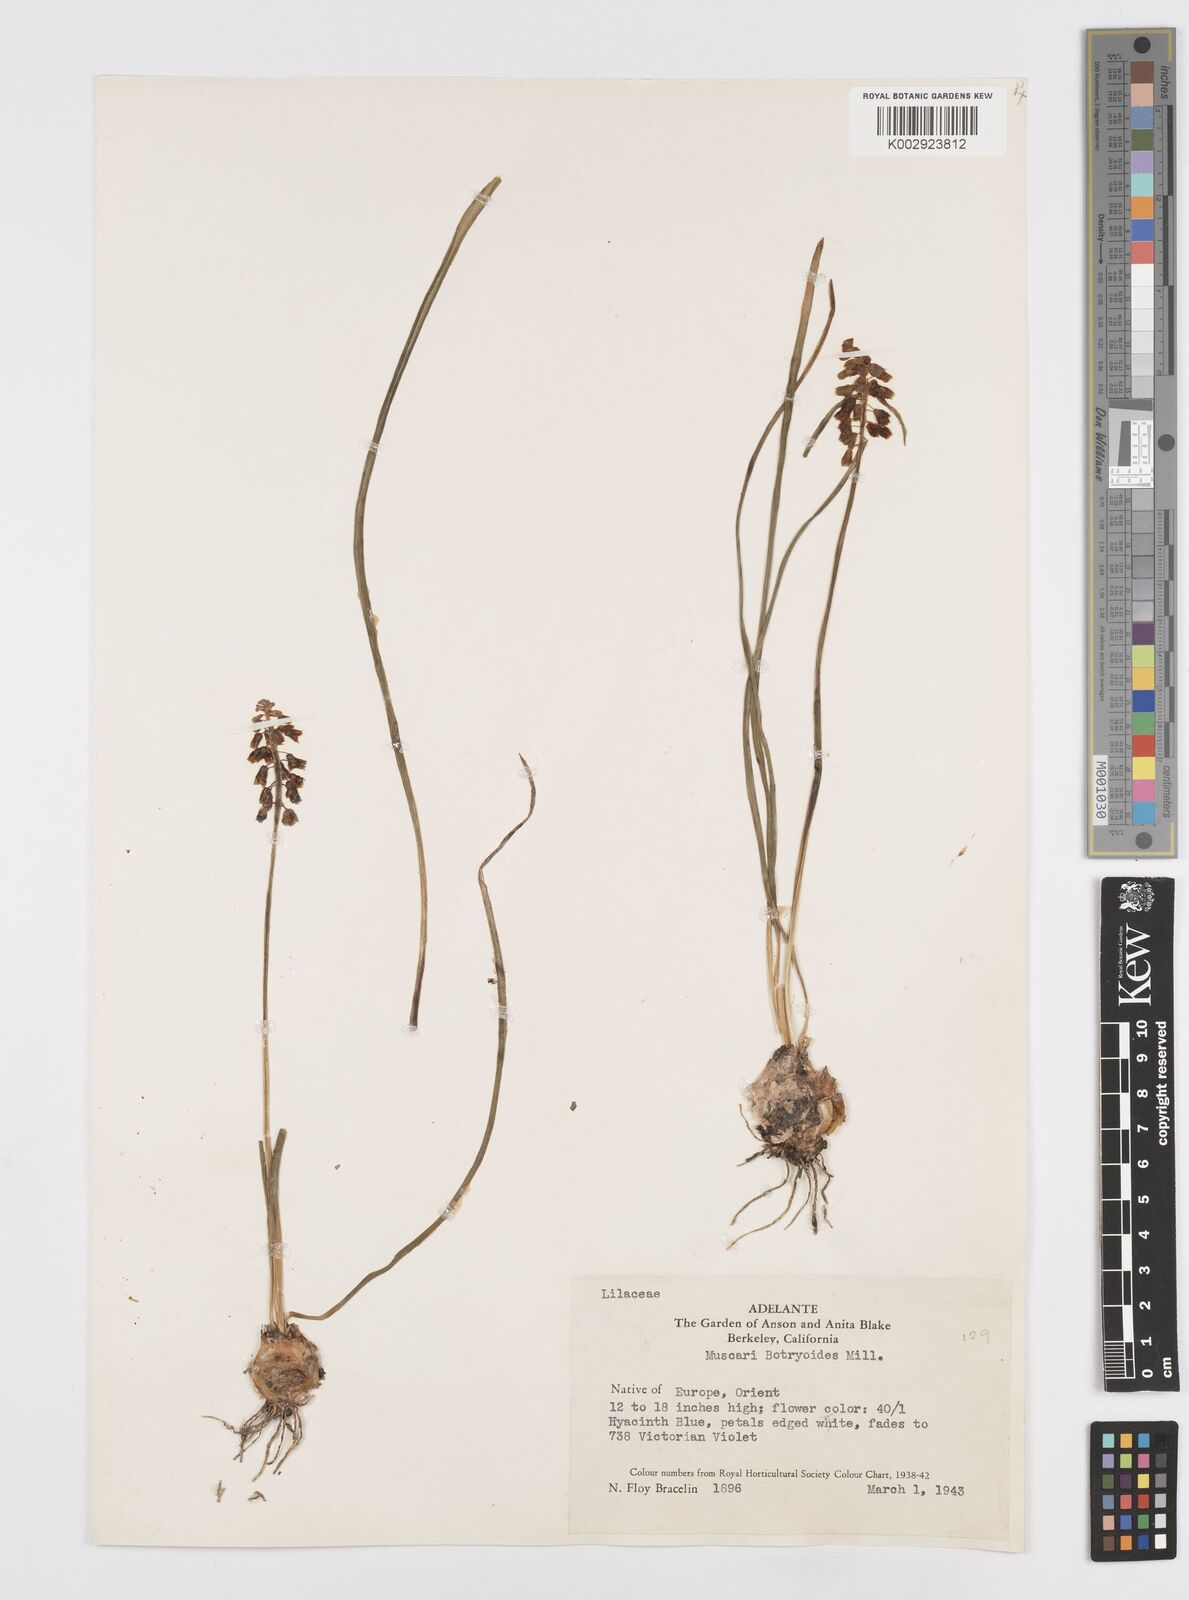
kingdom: Plantae
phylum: Tracheophyta
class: Liliopsida
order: Asparagales
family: Asparagaceae
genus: Muscari
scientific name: Muscari botryoides
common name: Compact grape-hyacinth
